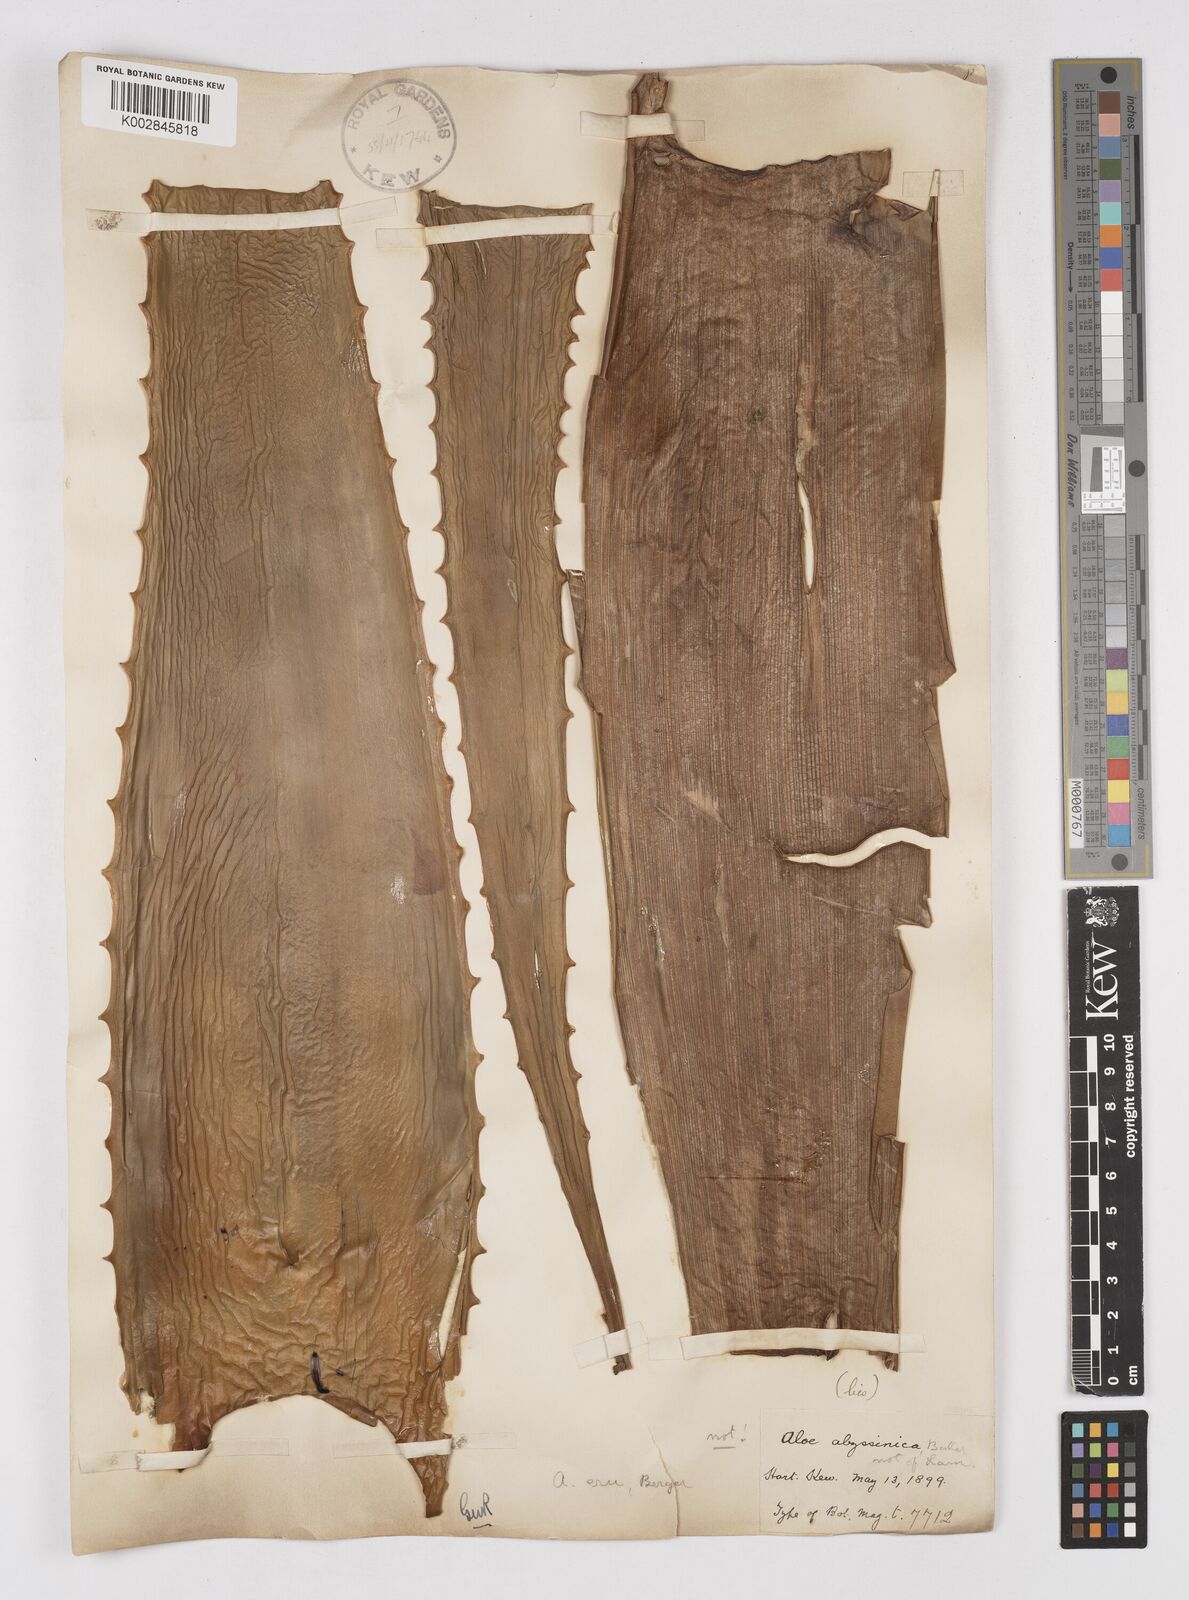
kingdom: Plantae
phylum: Tracheophyta
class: Liliopsida
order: Asparagales
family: Asphodelaceae
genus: Aloe
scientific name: Aloe camperi
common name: Camper's aloe
